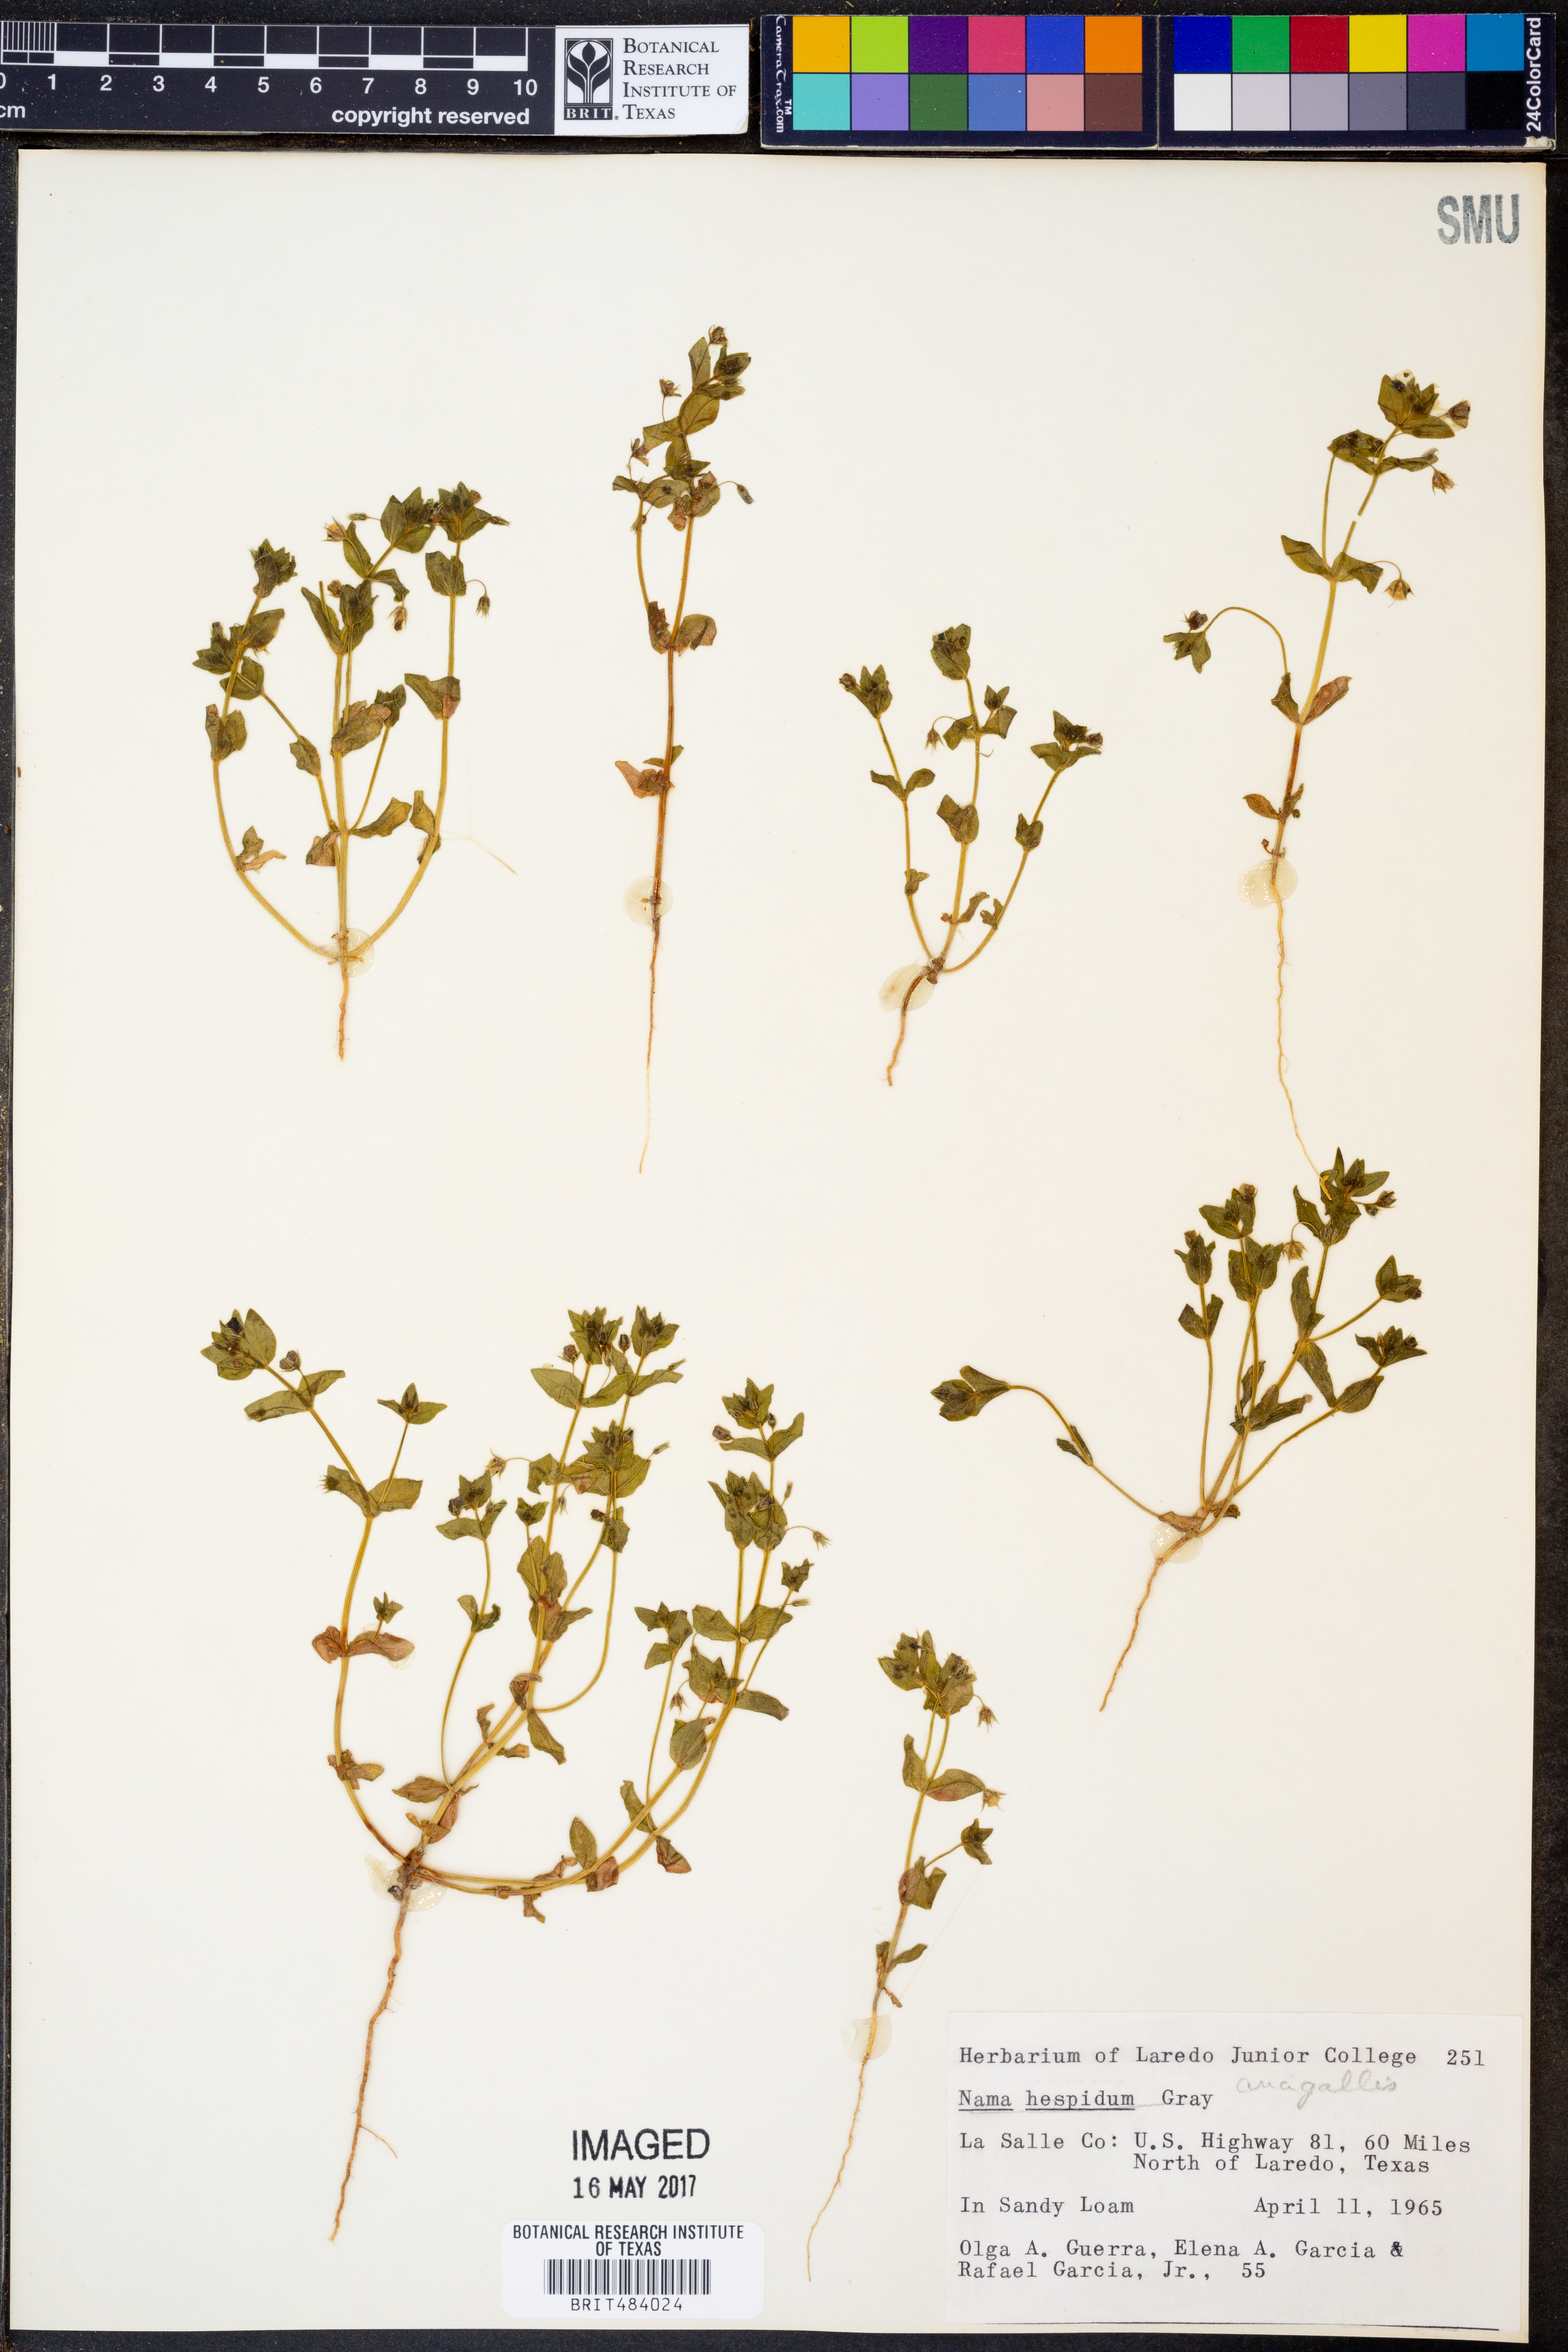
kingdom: Plantae
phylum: Tracheophyta
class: Magnoliopsida
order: Boraginales
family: Namaceae
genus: Nama
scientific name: Nama hispida
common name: Bristly nama
